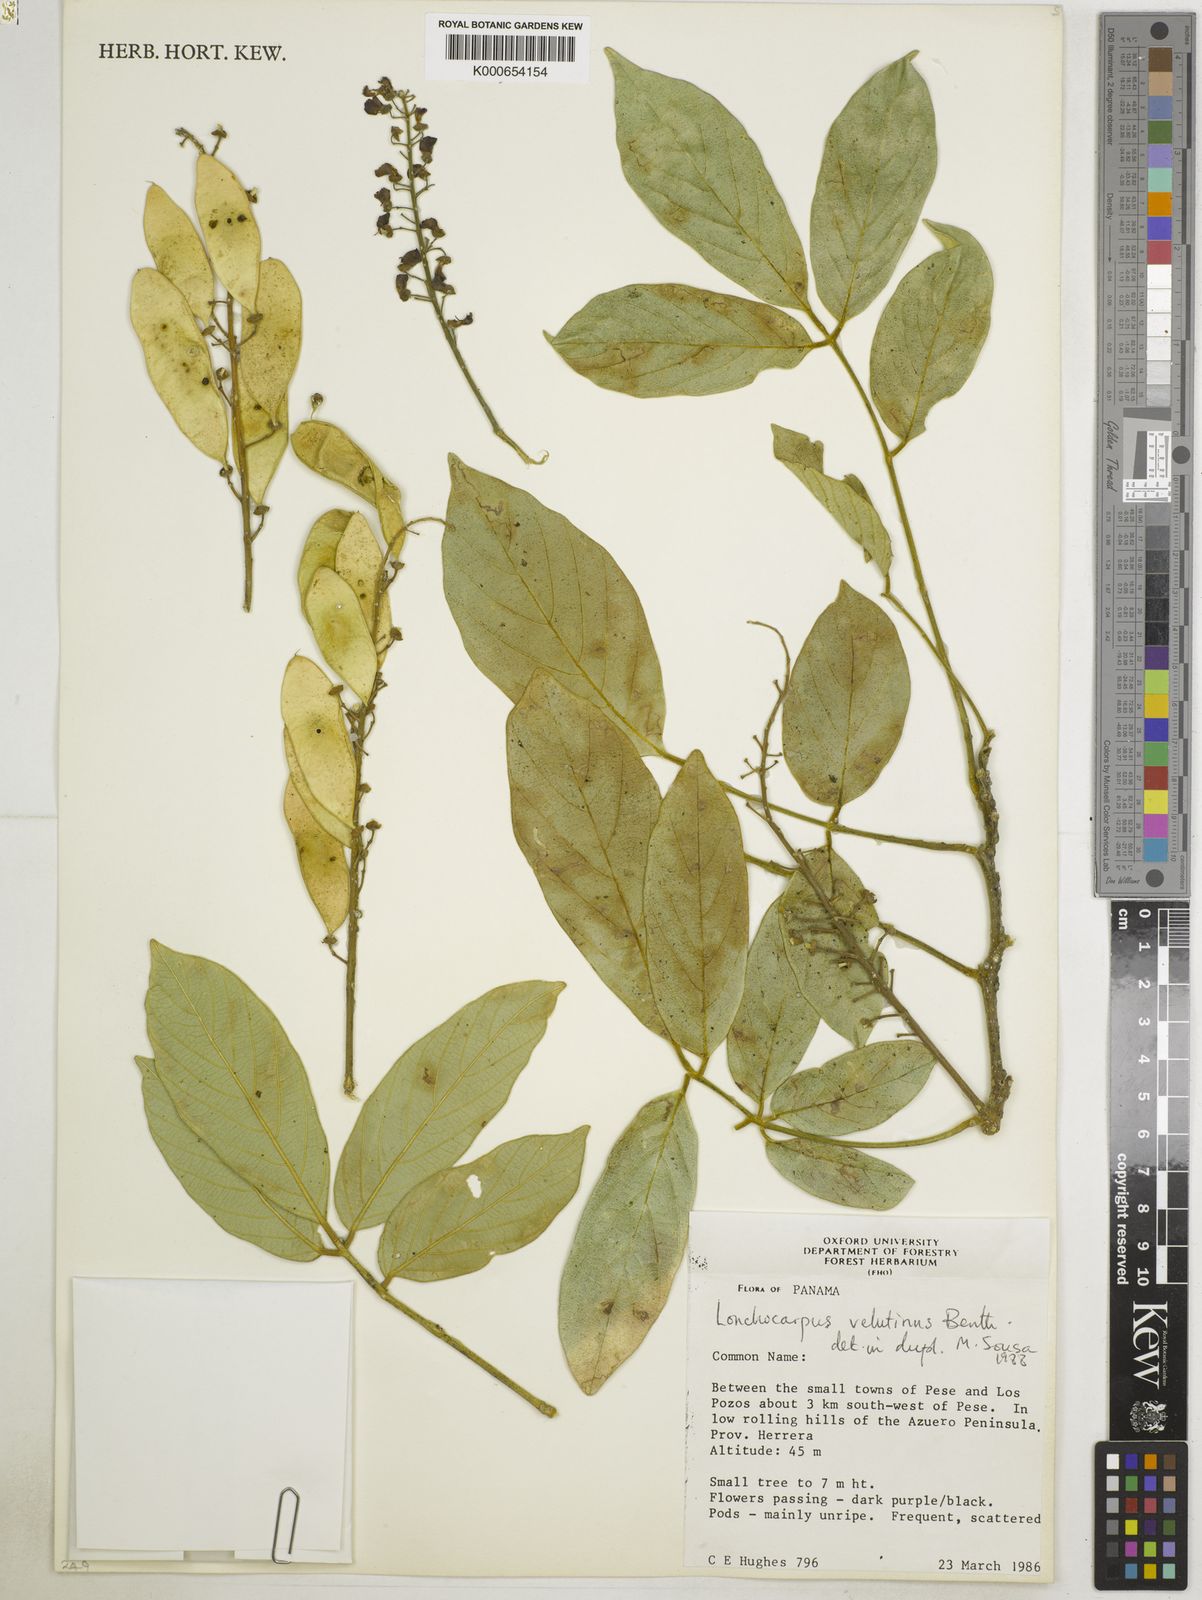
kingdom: Plantae
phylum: Tracheophyta
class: Magnoliopsida
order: Fabales
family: Fabaceae
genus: Lonchocarpus
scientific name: Lonchocarpus velutinus
